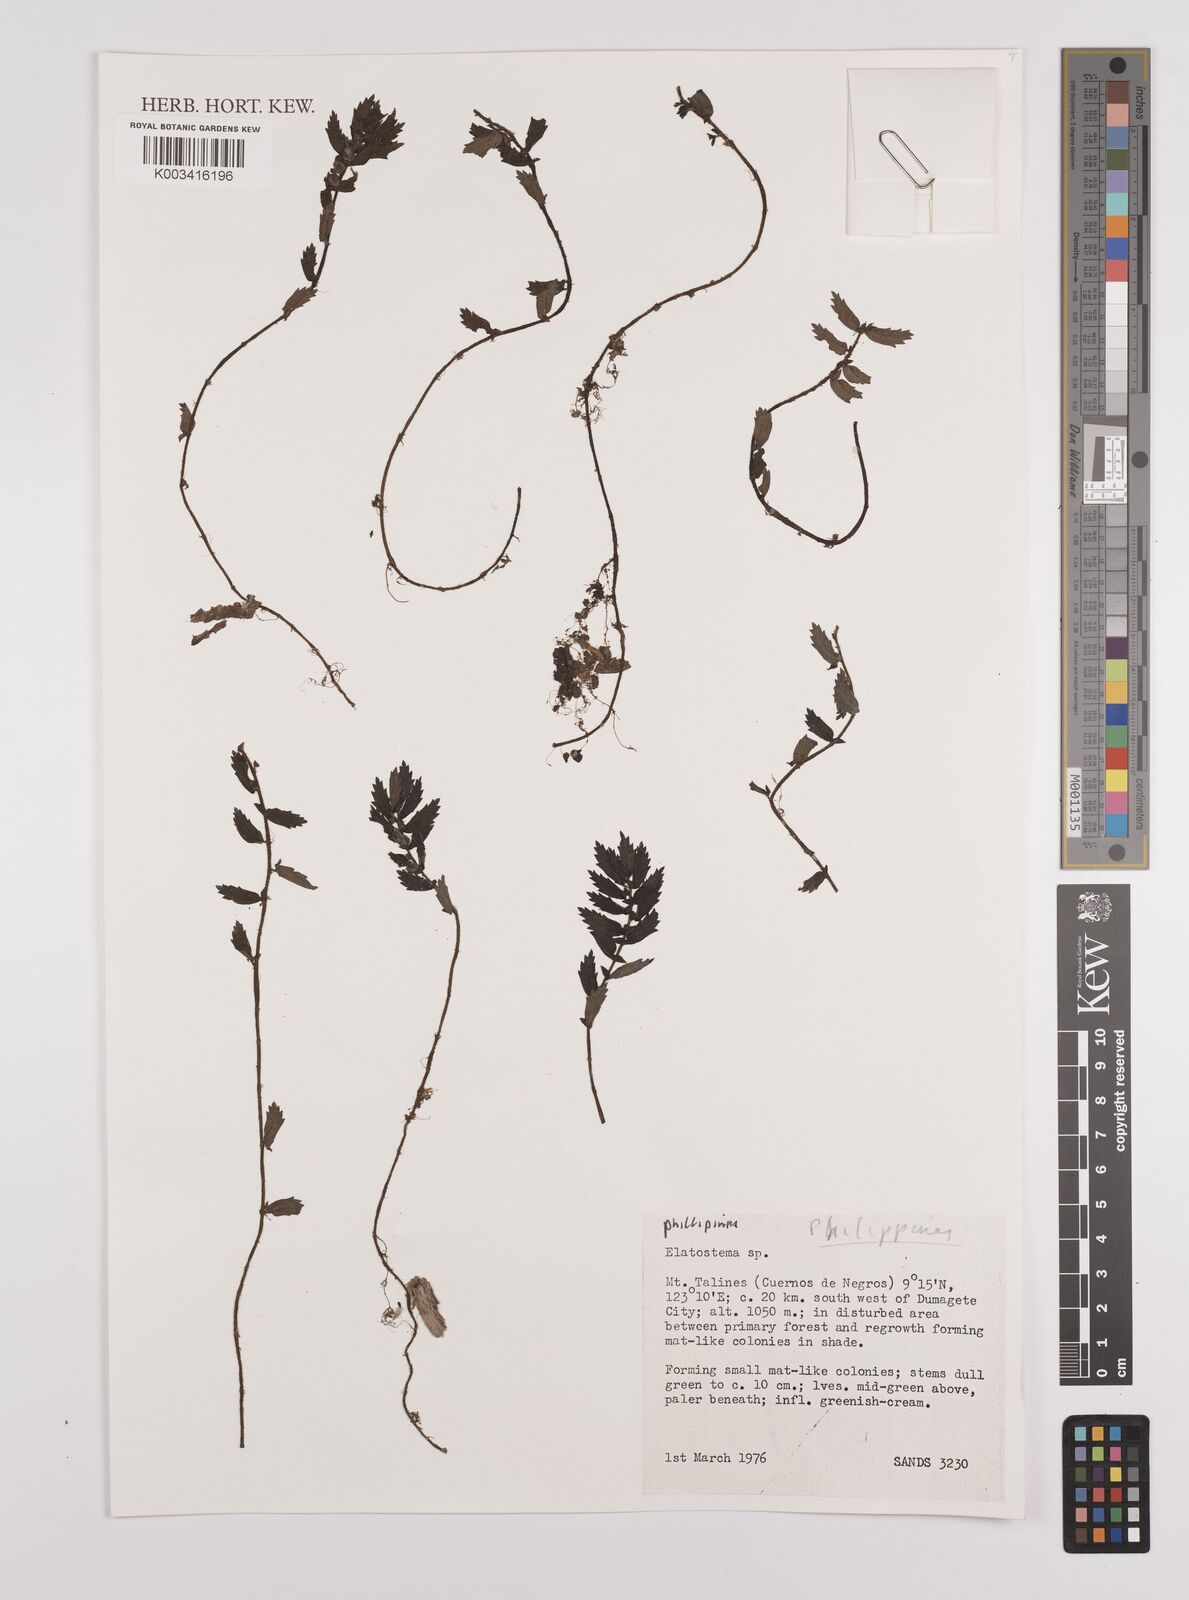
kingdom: Plantae
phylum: Tracheophyta
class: Magnoliopsida
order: Rosales
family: Urticaceae
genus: Elatostema
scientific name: Elatostema
